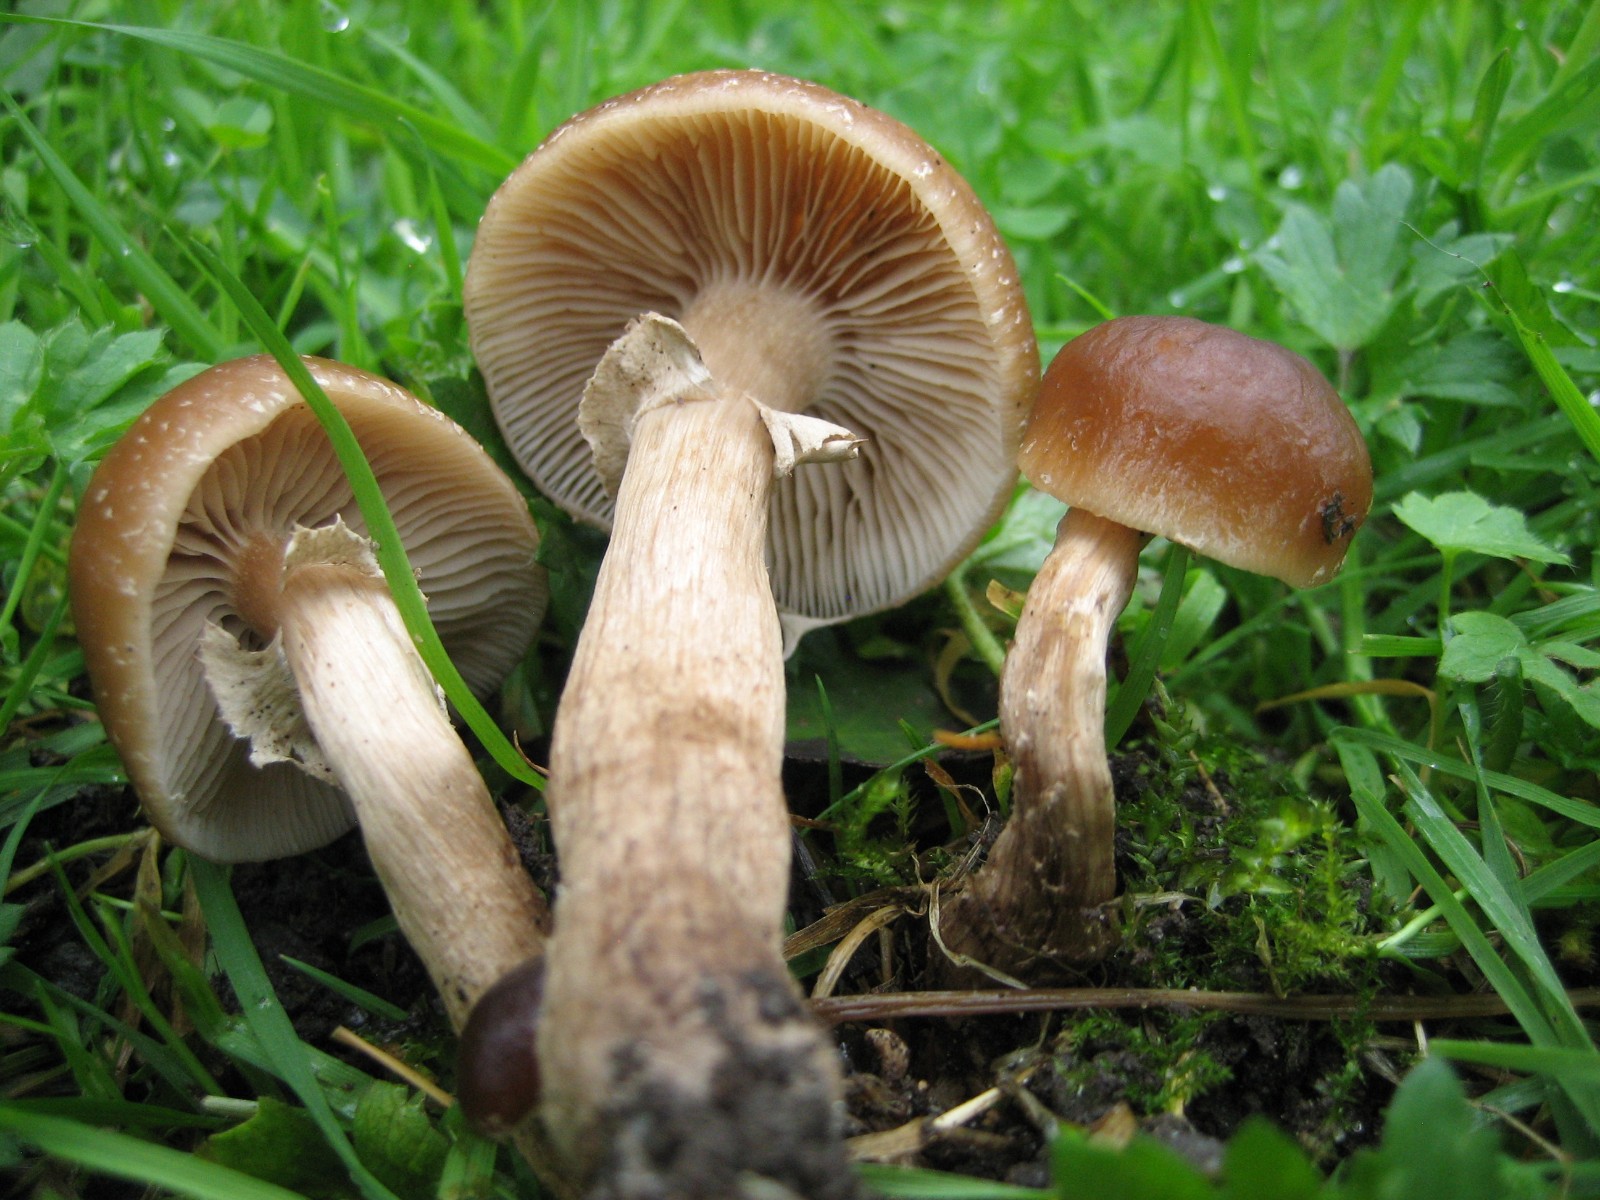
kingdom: Fungi
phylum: Basidiomycota
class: Agaricomycetes
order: Agaricales
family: Tubariaceae
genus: Cyclocybe
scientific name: Cyclocybe erebia
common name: mørk agerhat
